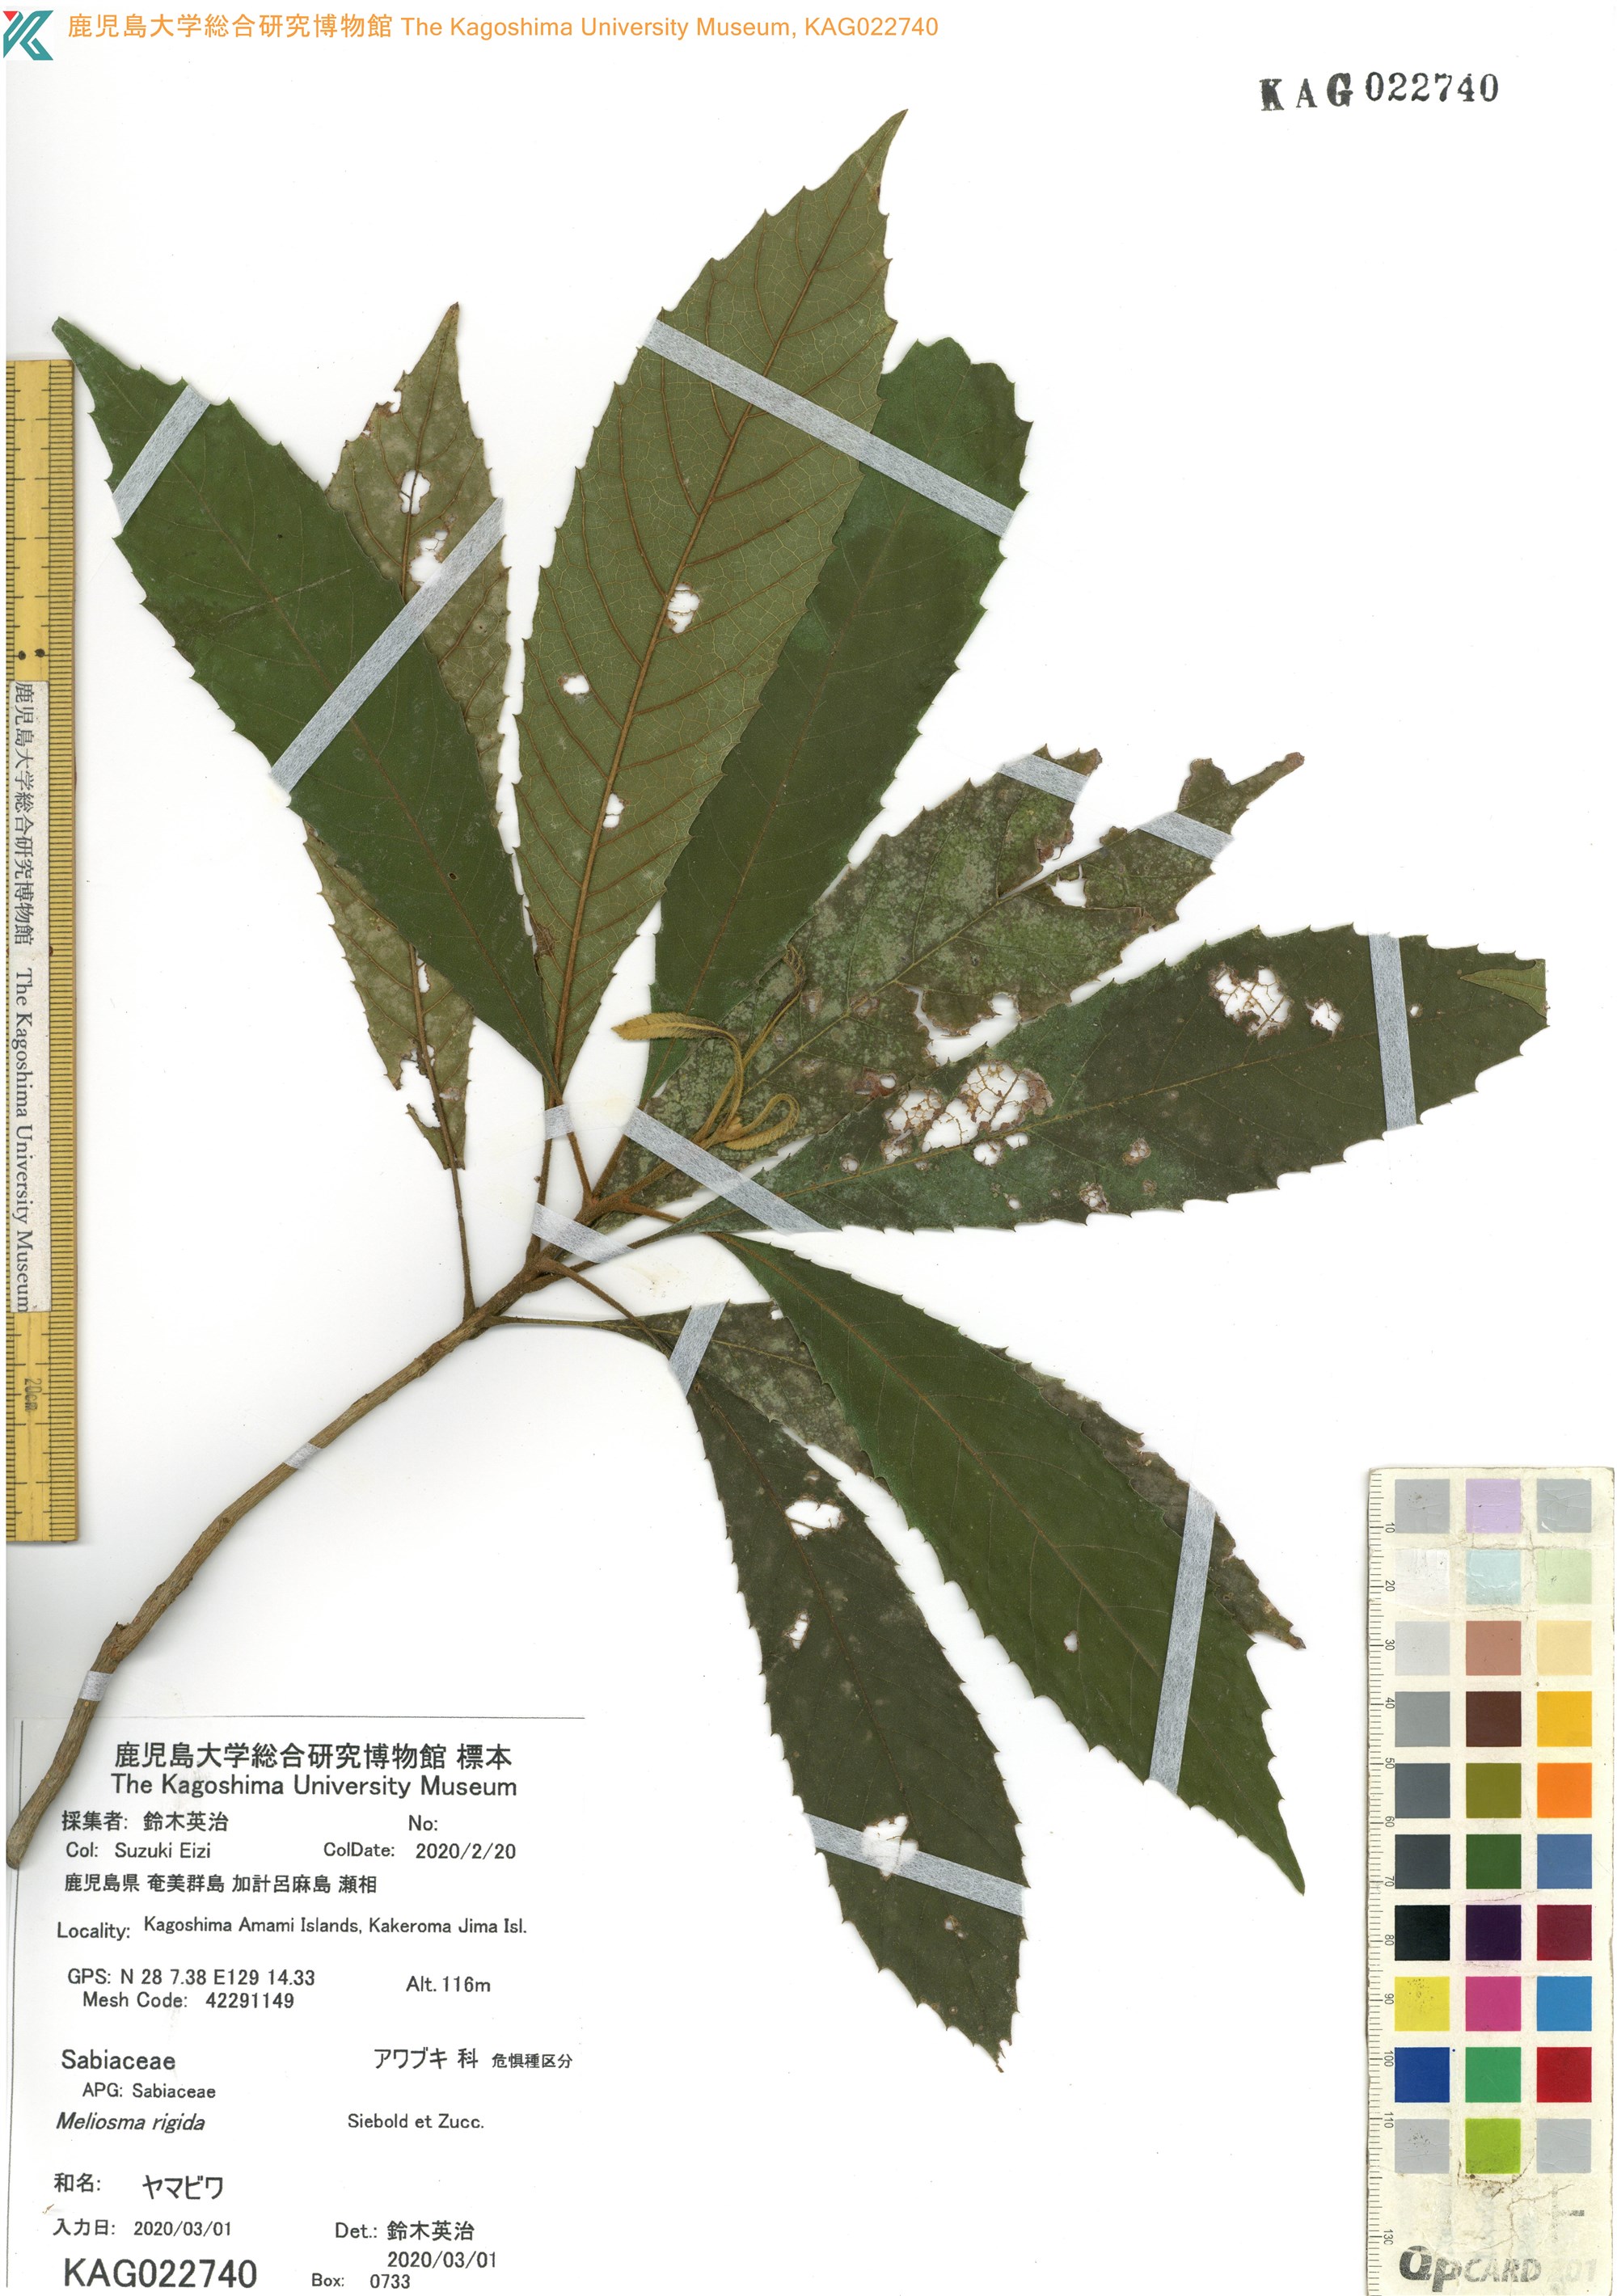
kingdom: Plantae
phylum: Tracheophyta
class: Magnoliopsida
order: Proteales
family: Sabiaceae
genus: Meliosma
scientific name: Meliosma rigida
